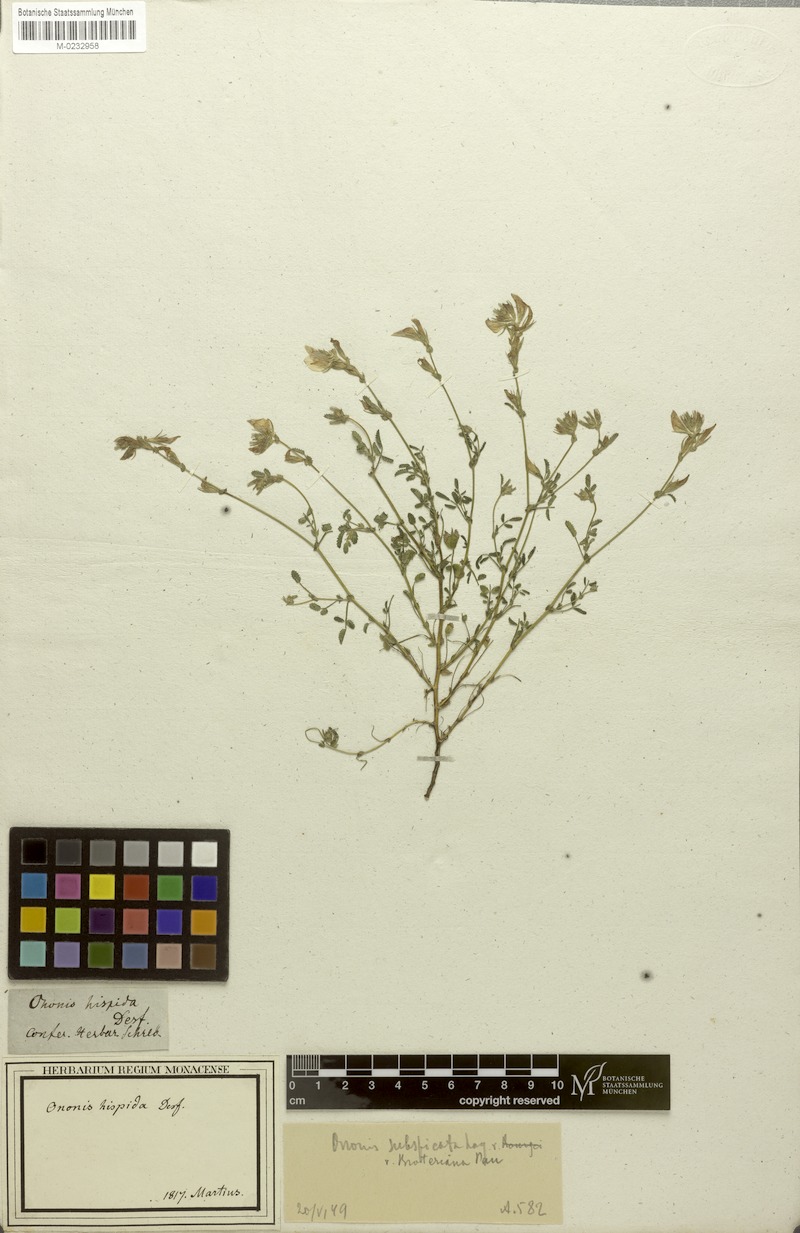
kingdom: Plantae
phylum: Tracheophyta
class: Magnoliopsida
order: Fabales
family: Fabaceae
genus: Ononis
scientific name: Ononis baetica
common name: Andalucian restharrow
